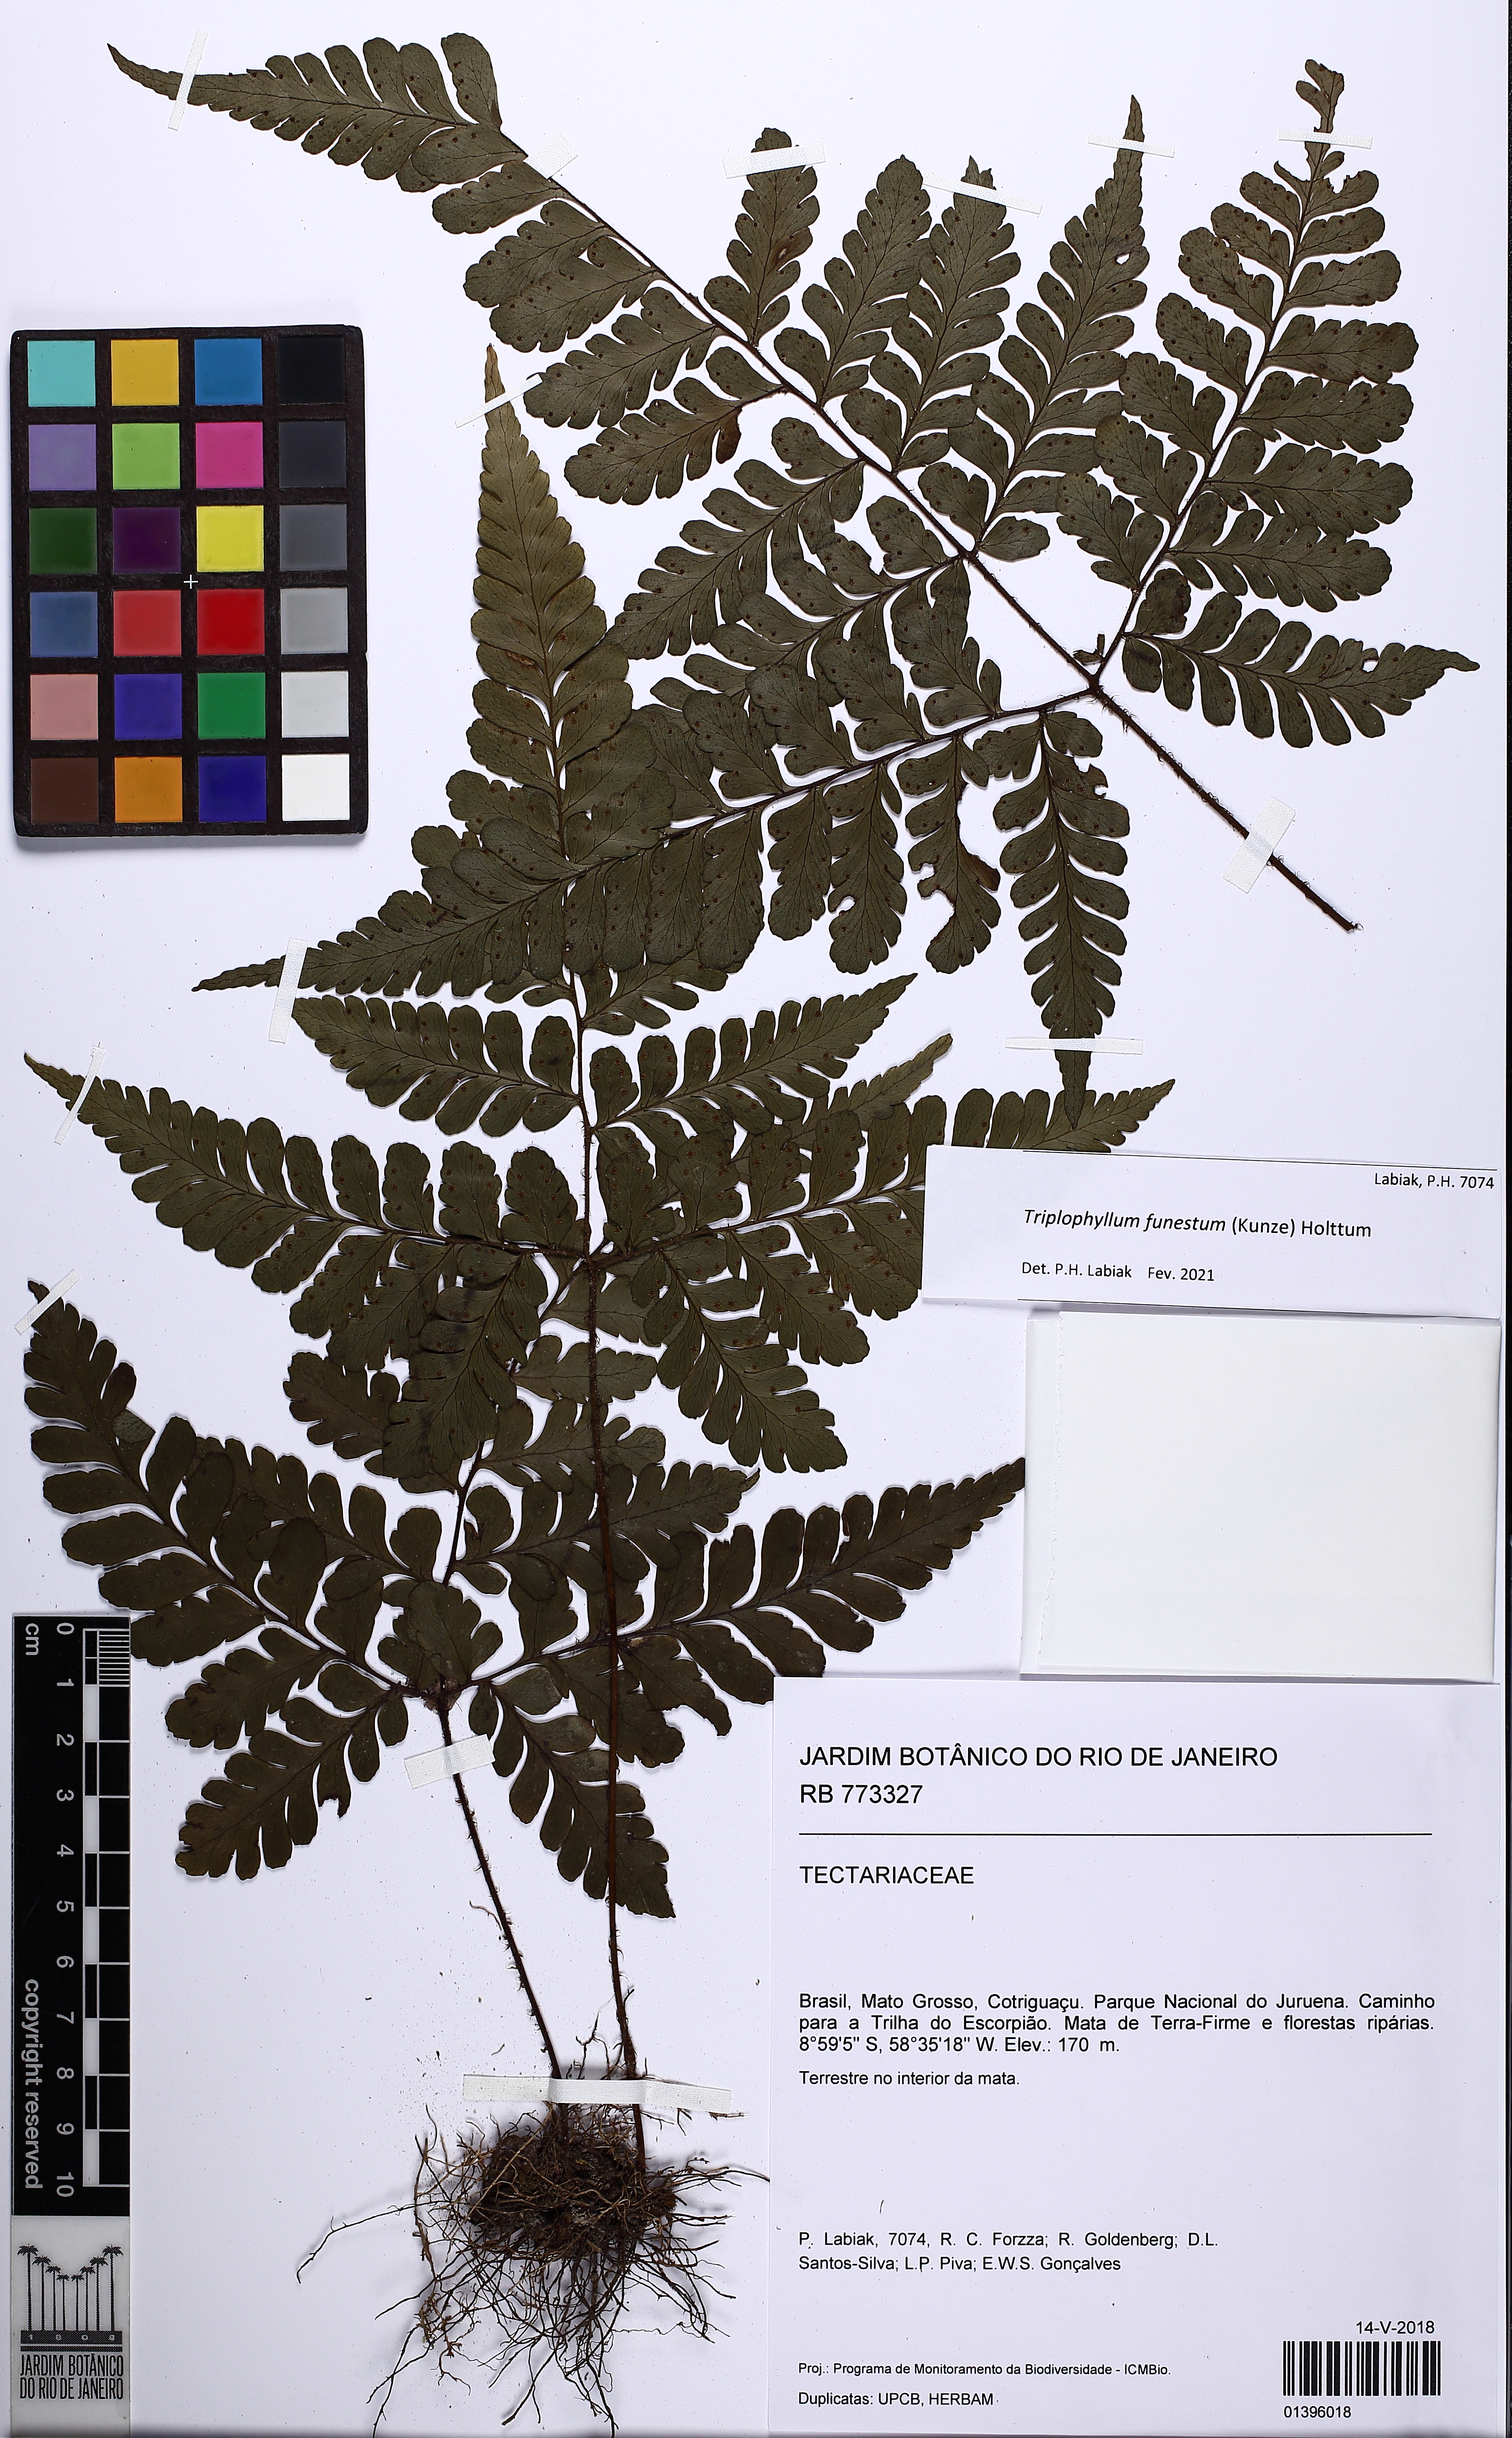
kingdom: Plantae
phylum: Tracheophyta
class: Polypodiopsida
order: Polypodiales
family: Tectariaceae
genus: Triplophyllum
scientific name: Triplophyllum funestum
